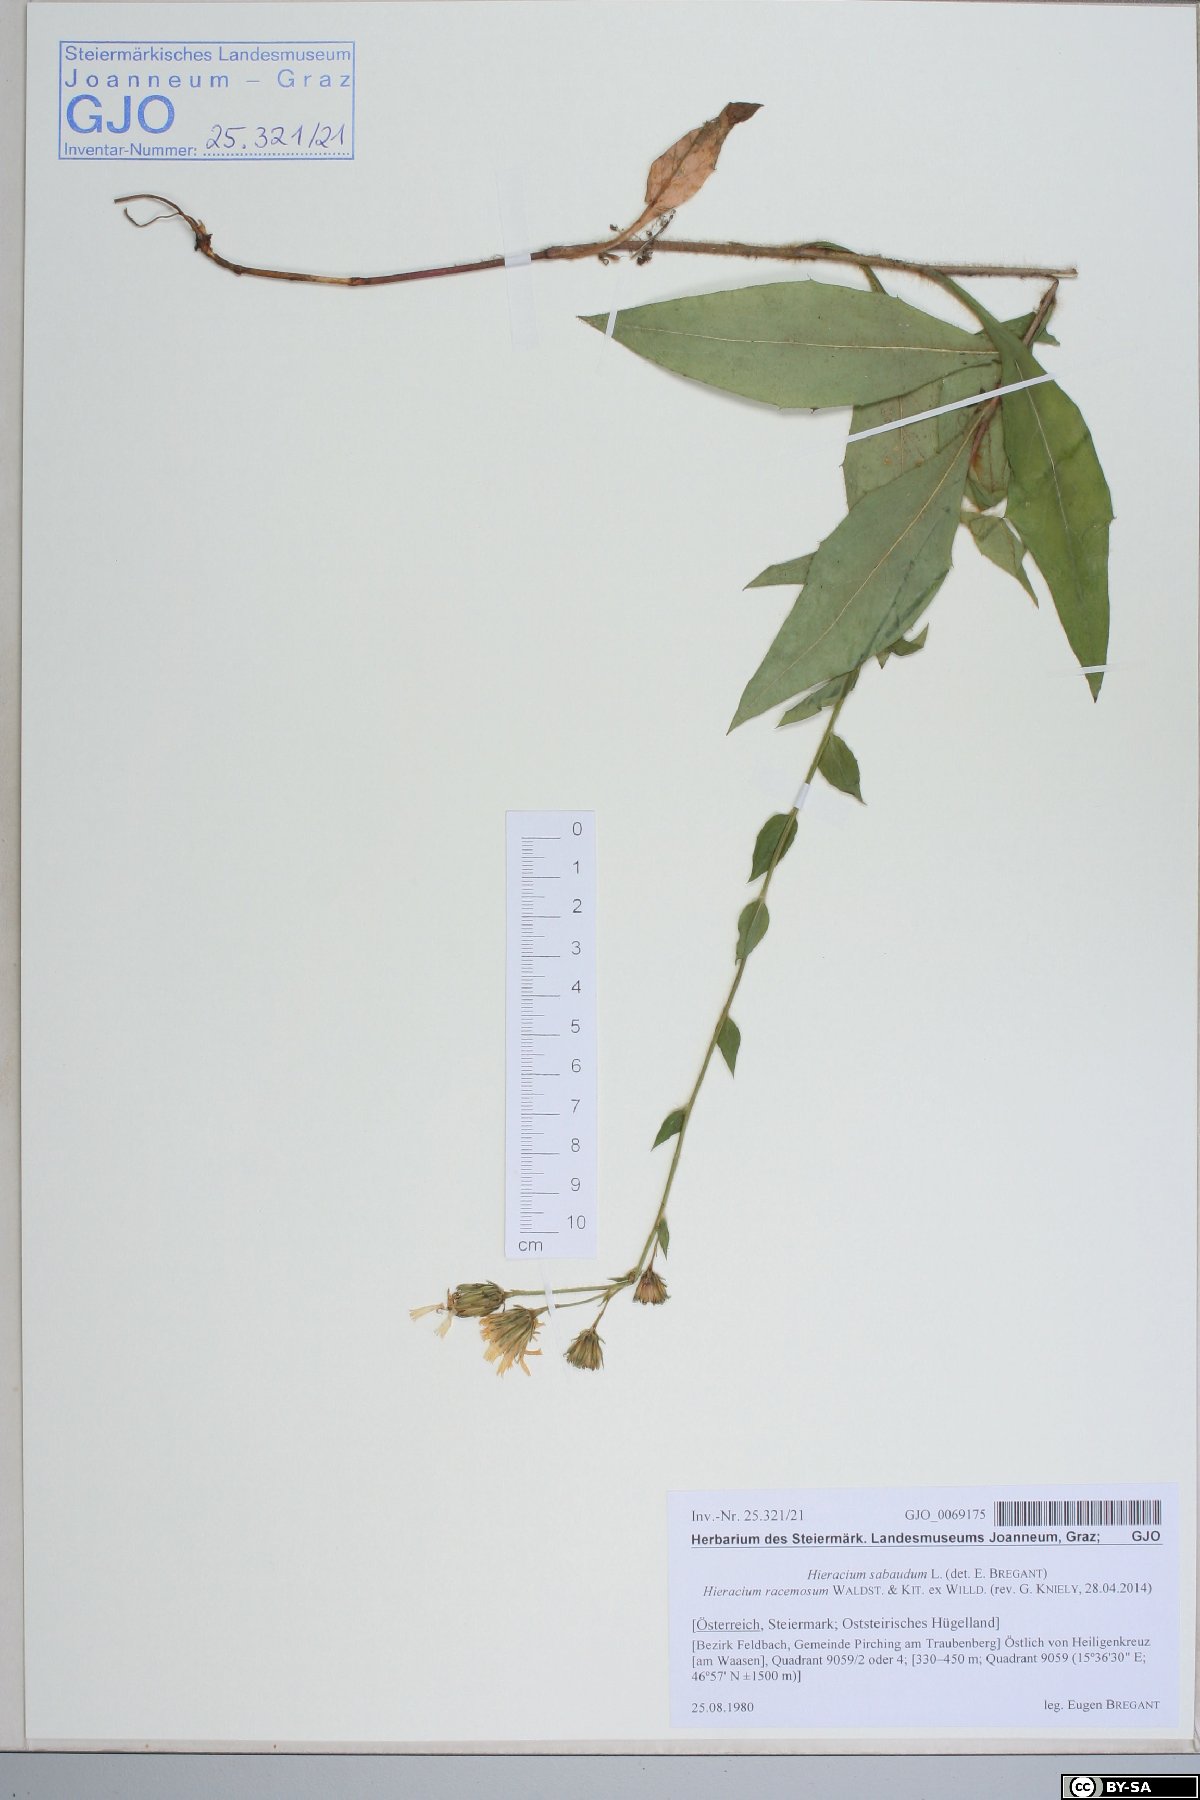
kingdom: Plantae
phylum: Tracheophyta
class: Magnoliopsida
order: Asterales
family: Asteraceae
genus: Hieracium
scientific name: Hieracium racemosum
